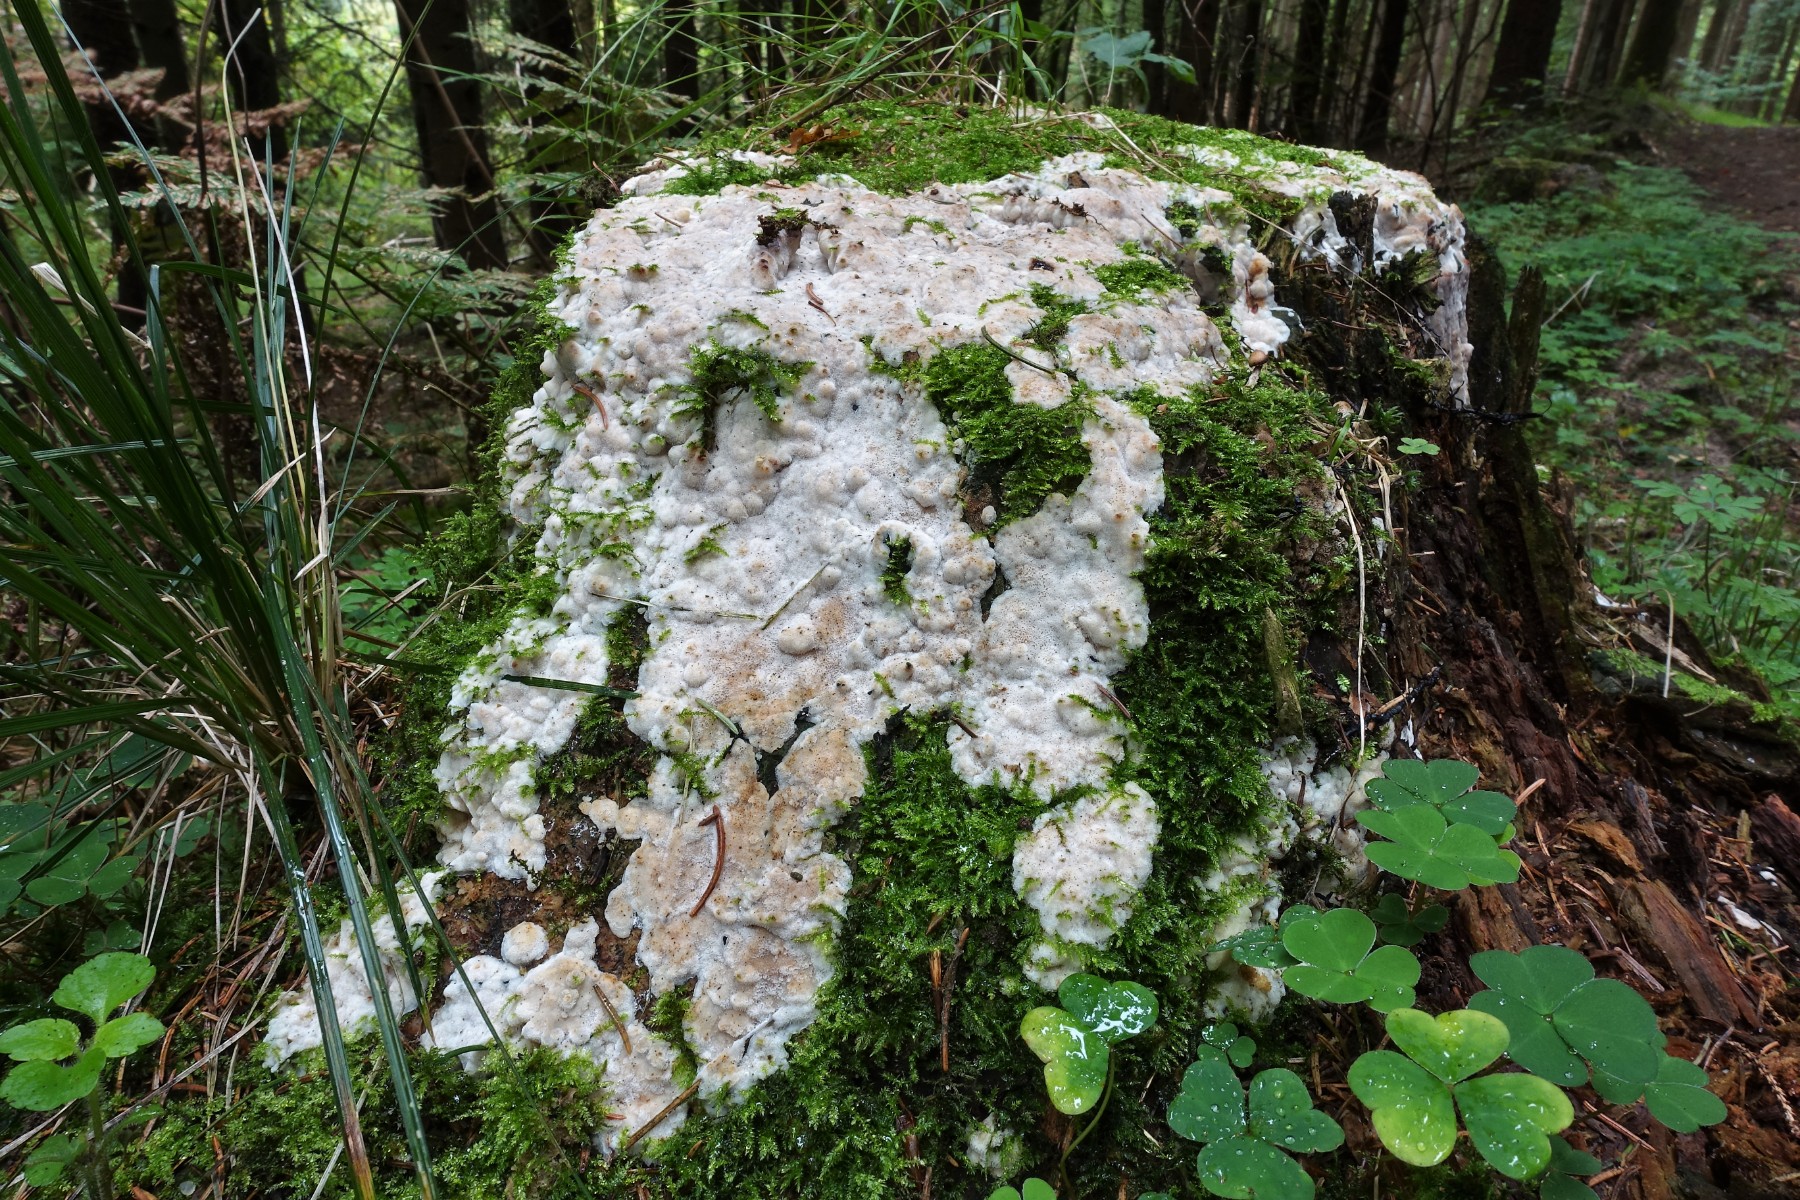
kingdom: Fungi
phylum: Basidiomycota
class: Agaricomycetes
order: Polyporales
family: Fomitopsidaceae
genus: Neoantrodia
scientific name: Neoantrodia serialis
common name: række-sejporesvamp
